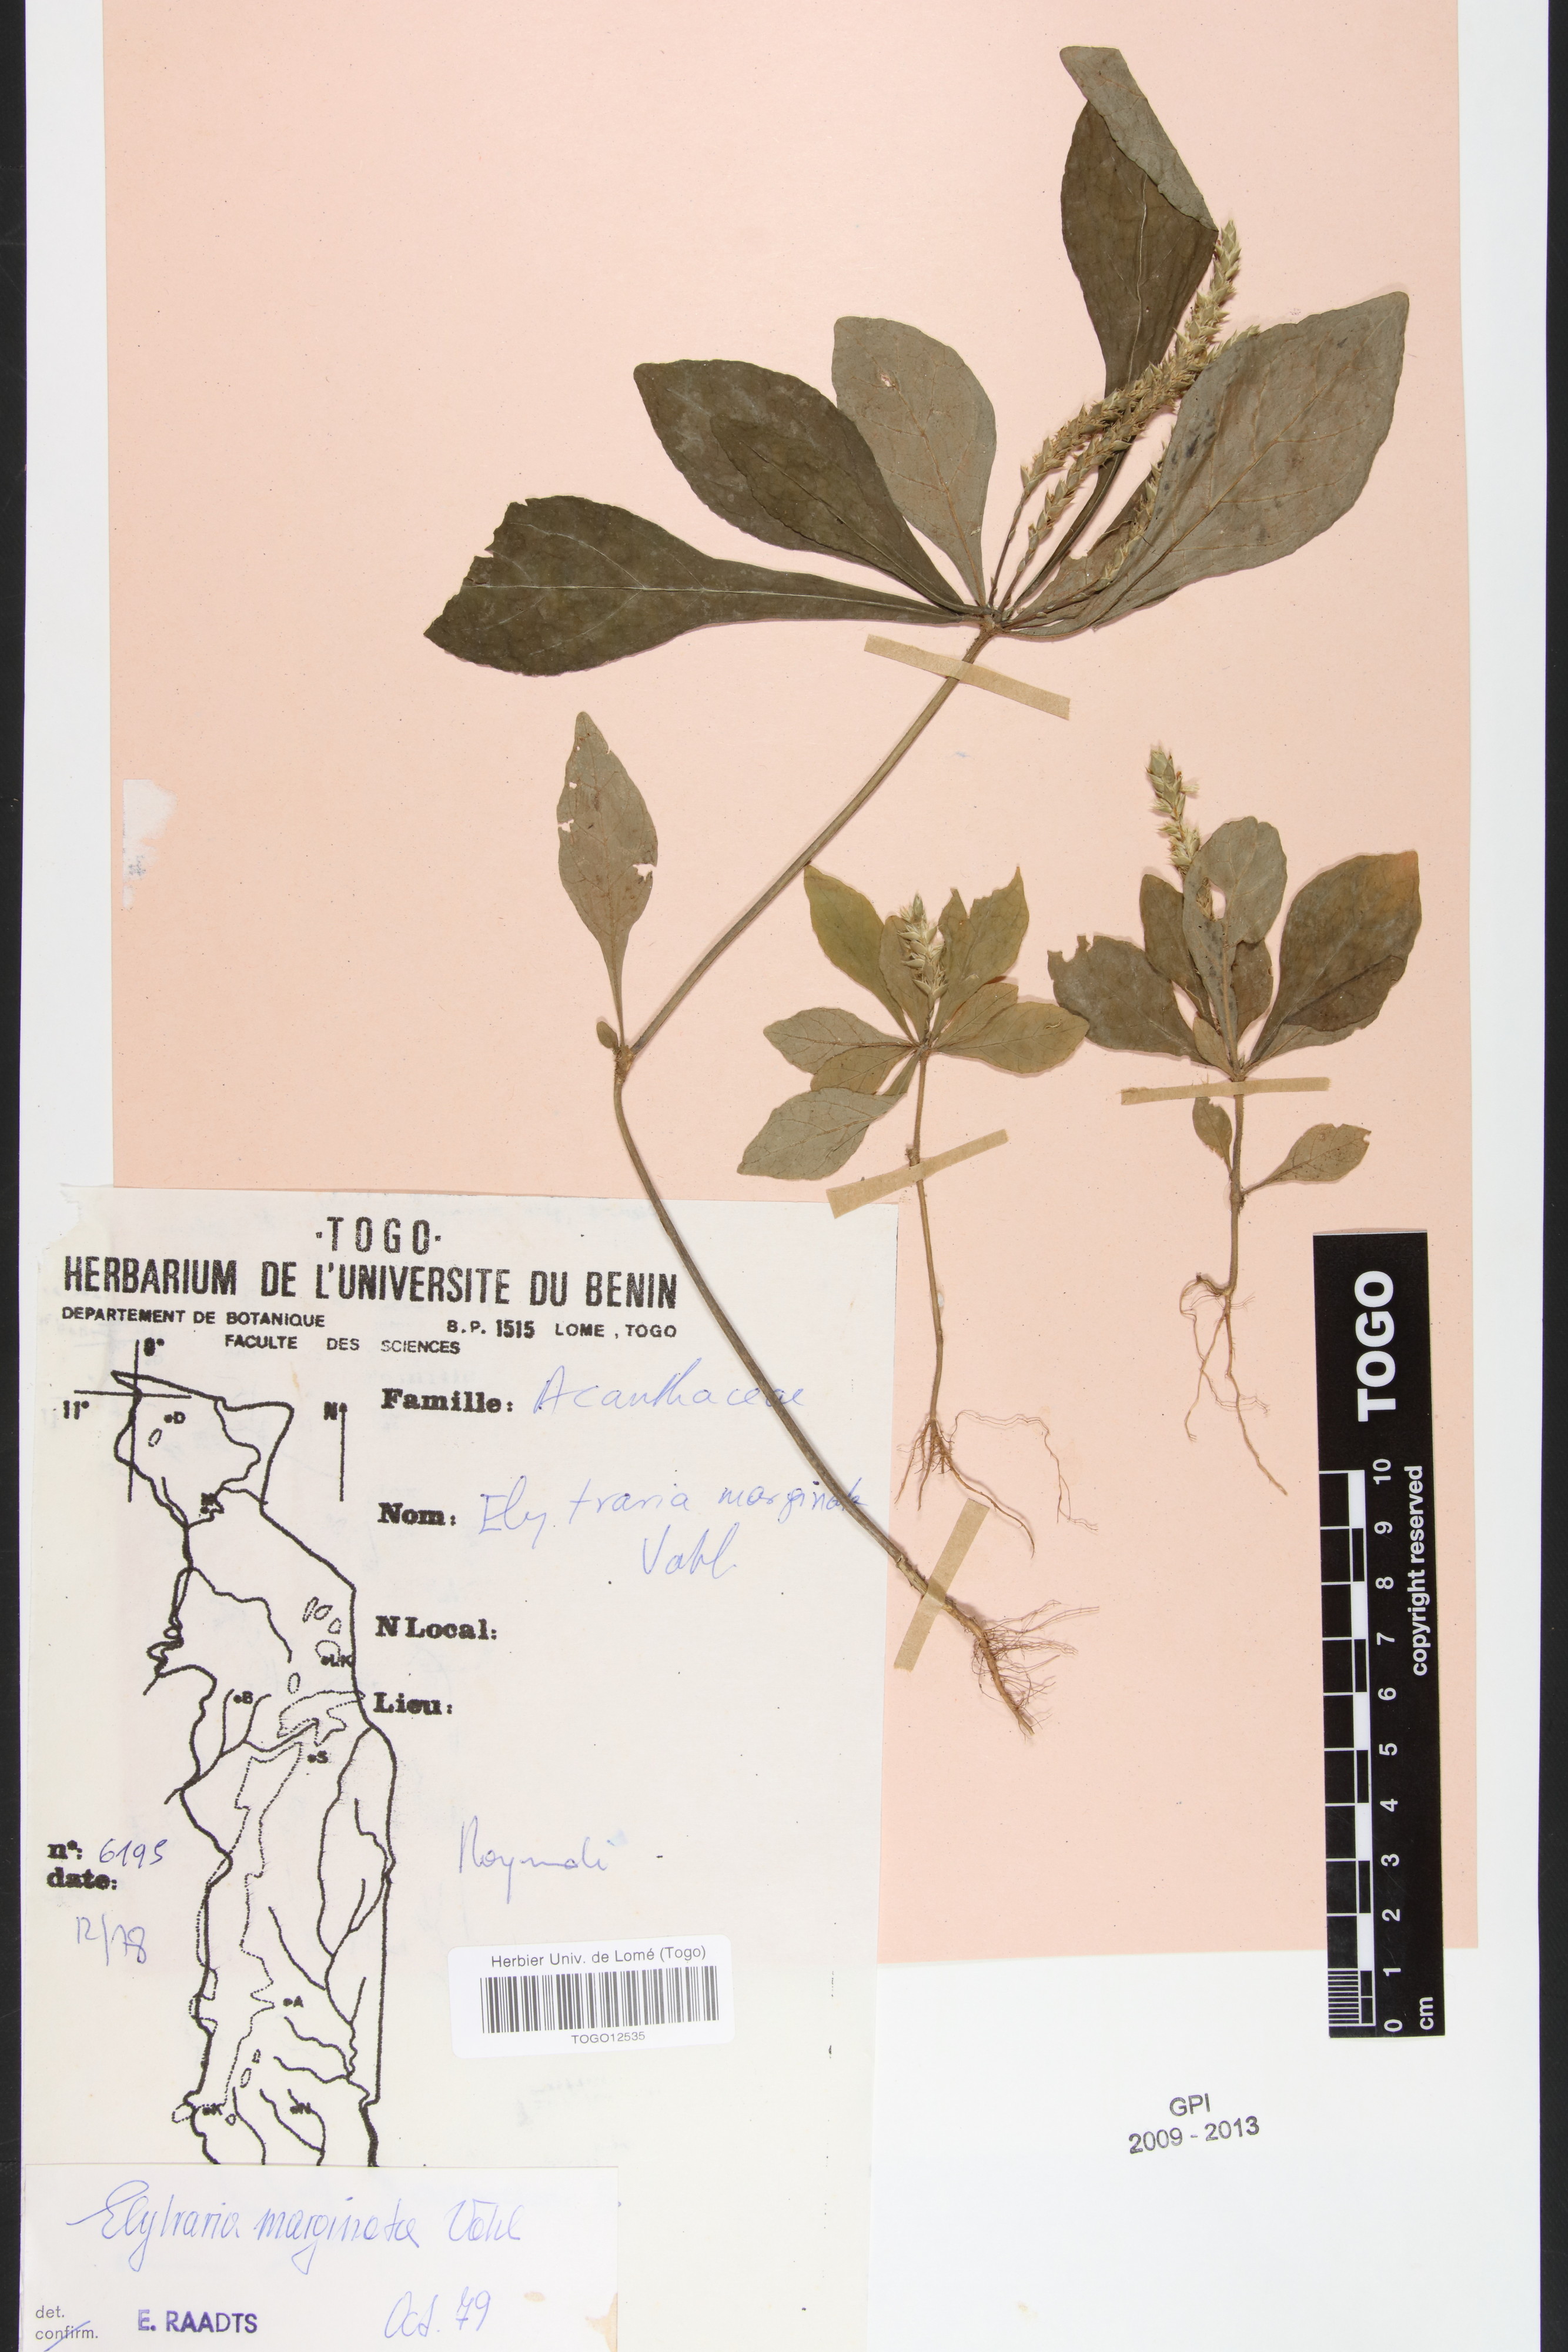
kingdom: Plantae
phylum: Tracheophyta
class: Magnoliopsida
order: Lamiales
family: Acanthaceae
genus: Elytraria
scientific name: Elytraria marginata
